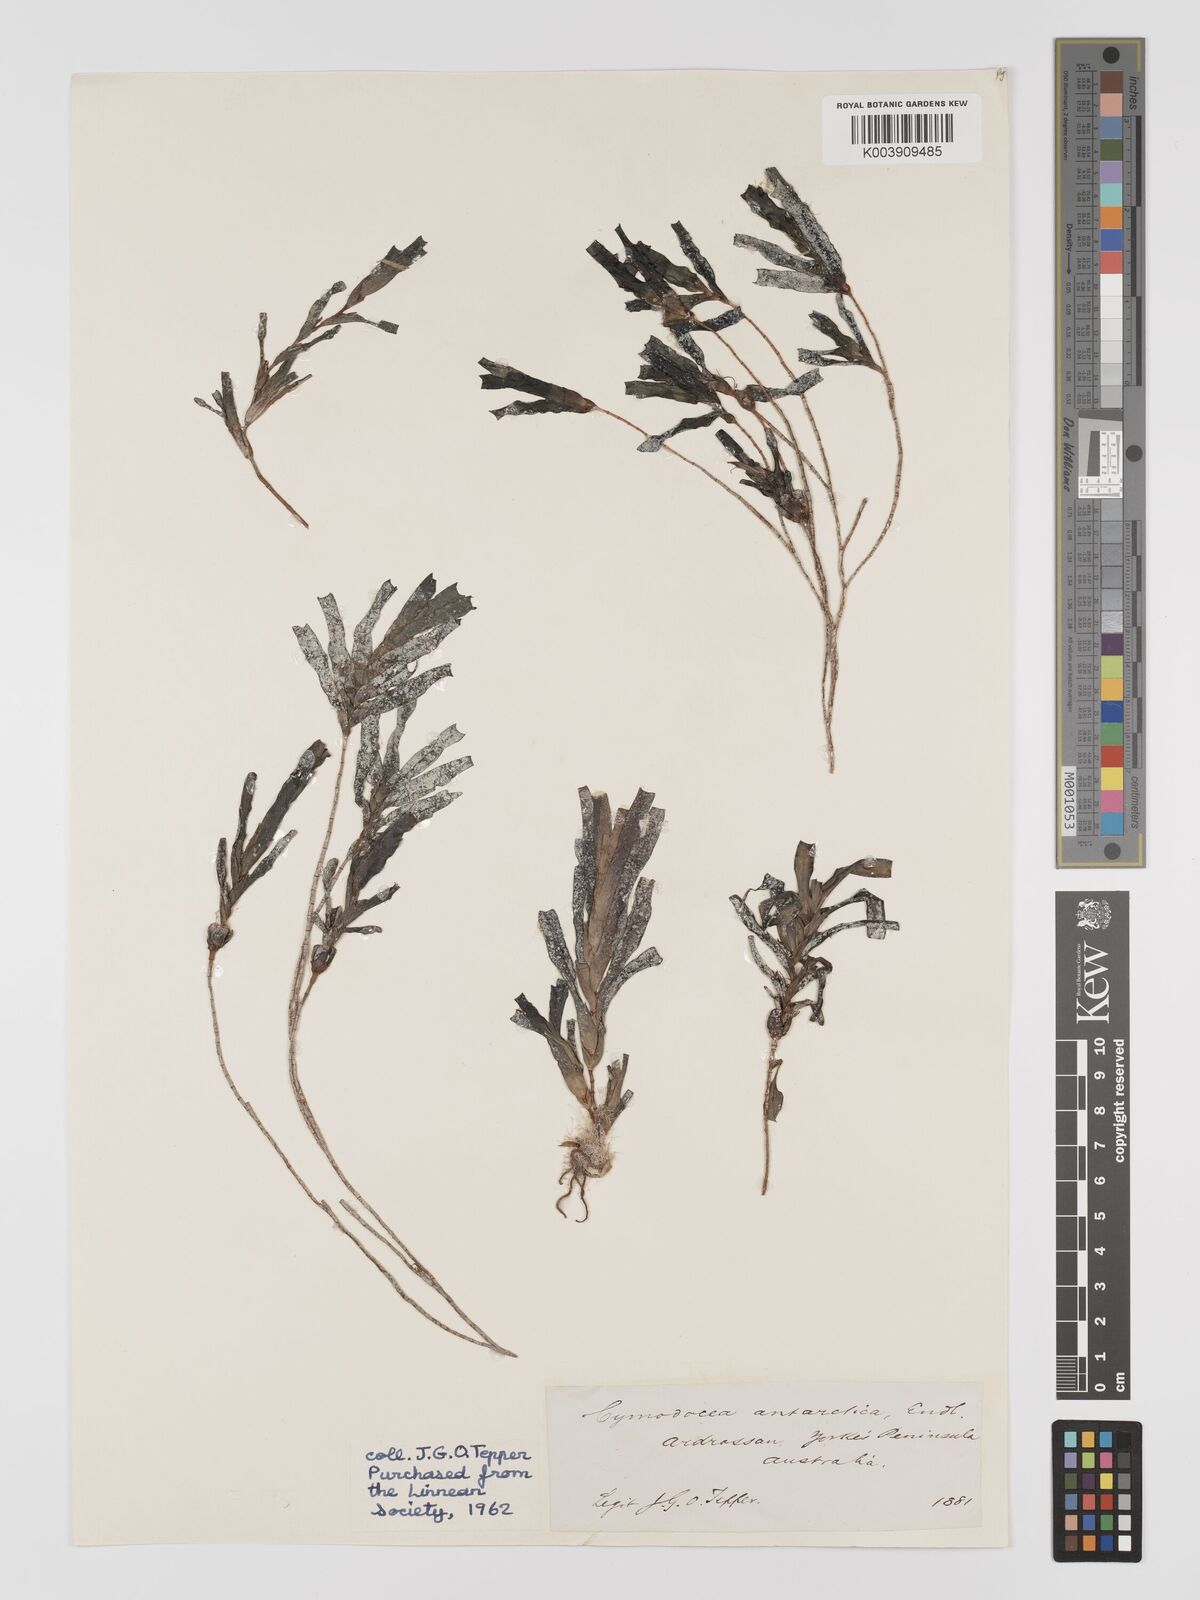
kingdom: Plantae
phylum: Tracheophyta
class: Liliopsida
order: Alismatales
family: Cymodoceaceae
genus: Amphibolis
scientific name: Amphibolis antarctica
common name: Species code: aa
